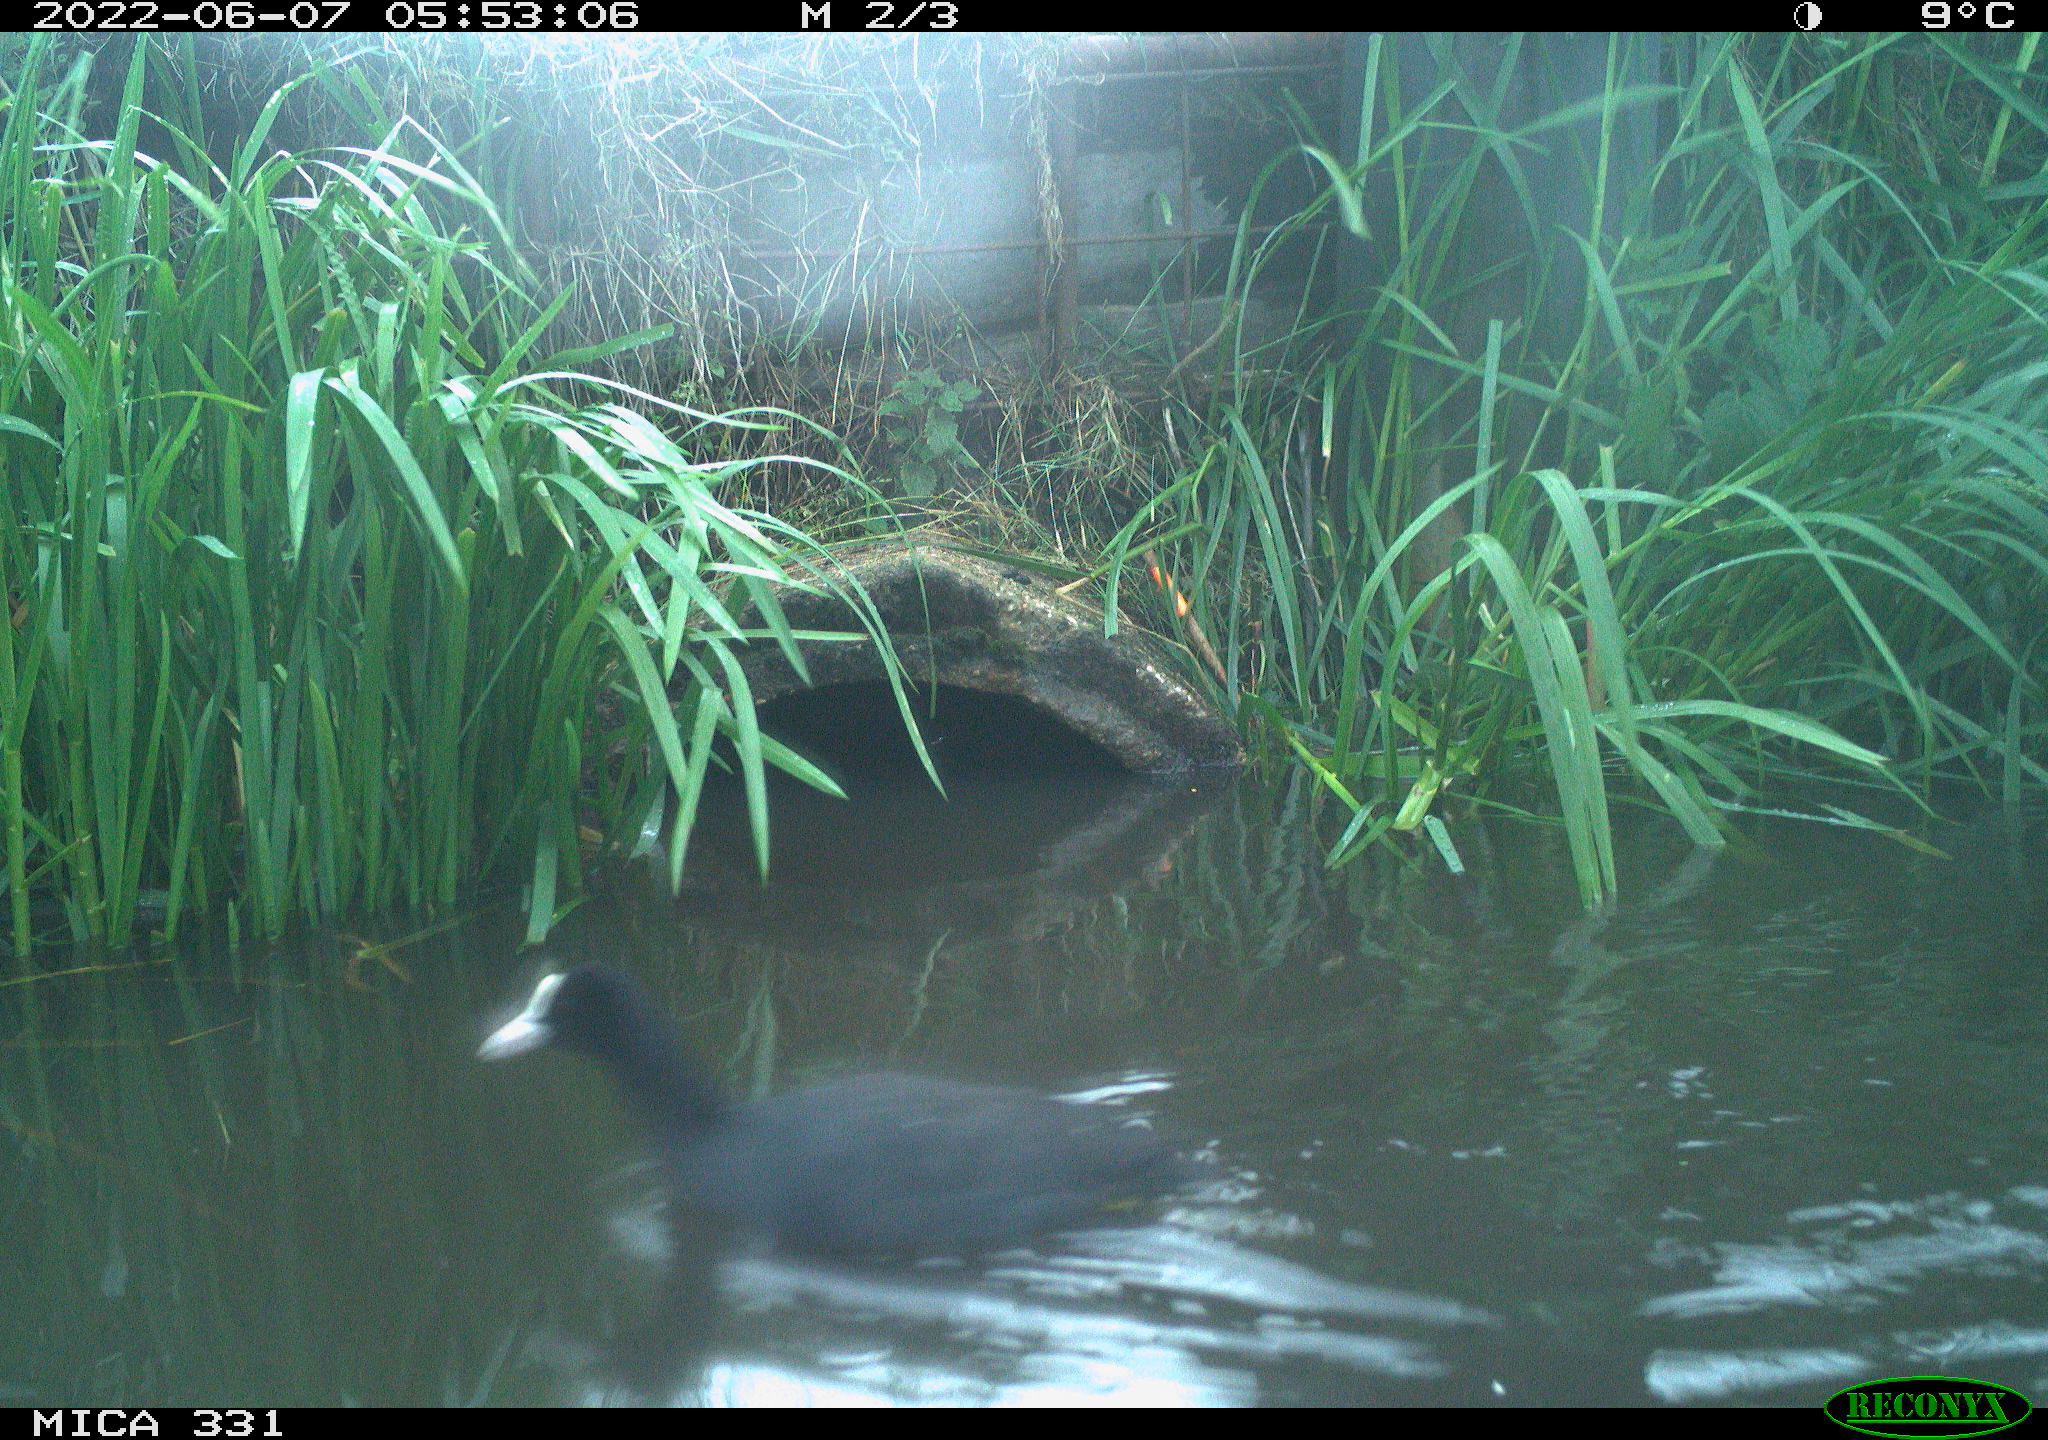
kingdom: Animalia
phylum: Chordata
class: Aves
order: Gruiformes
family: Rallidae
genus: Fulica
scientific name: Fulica atra
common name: Eurasian coot
